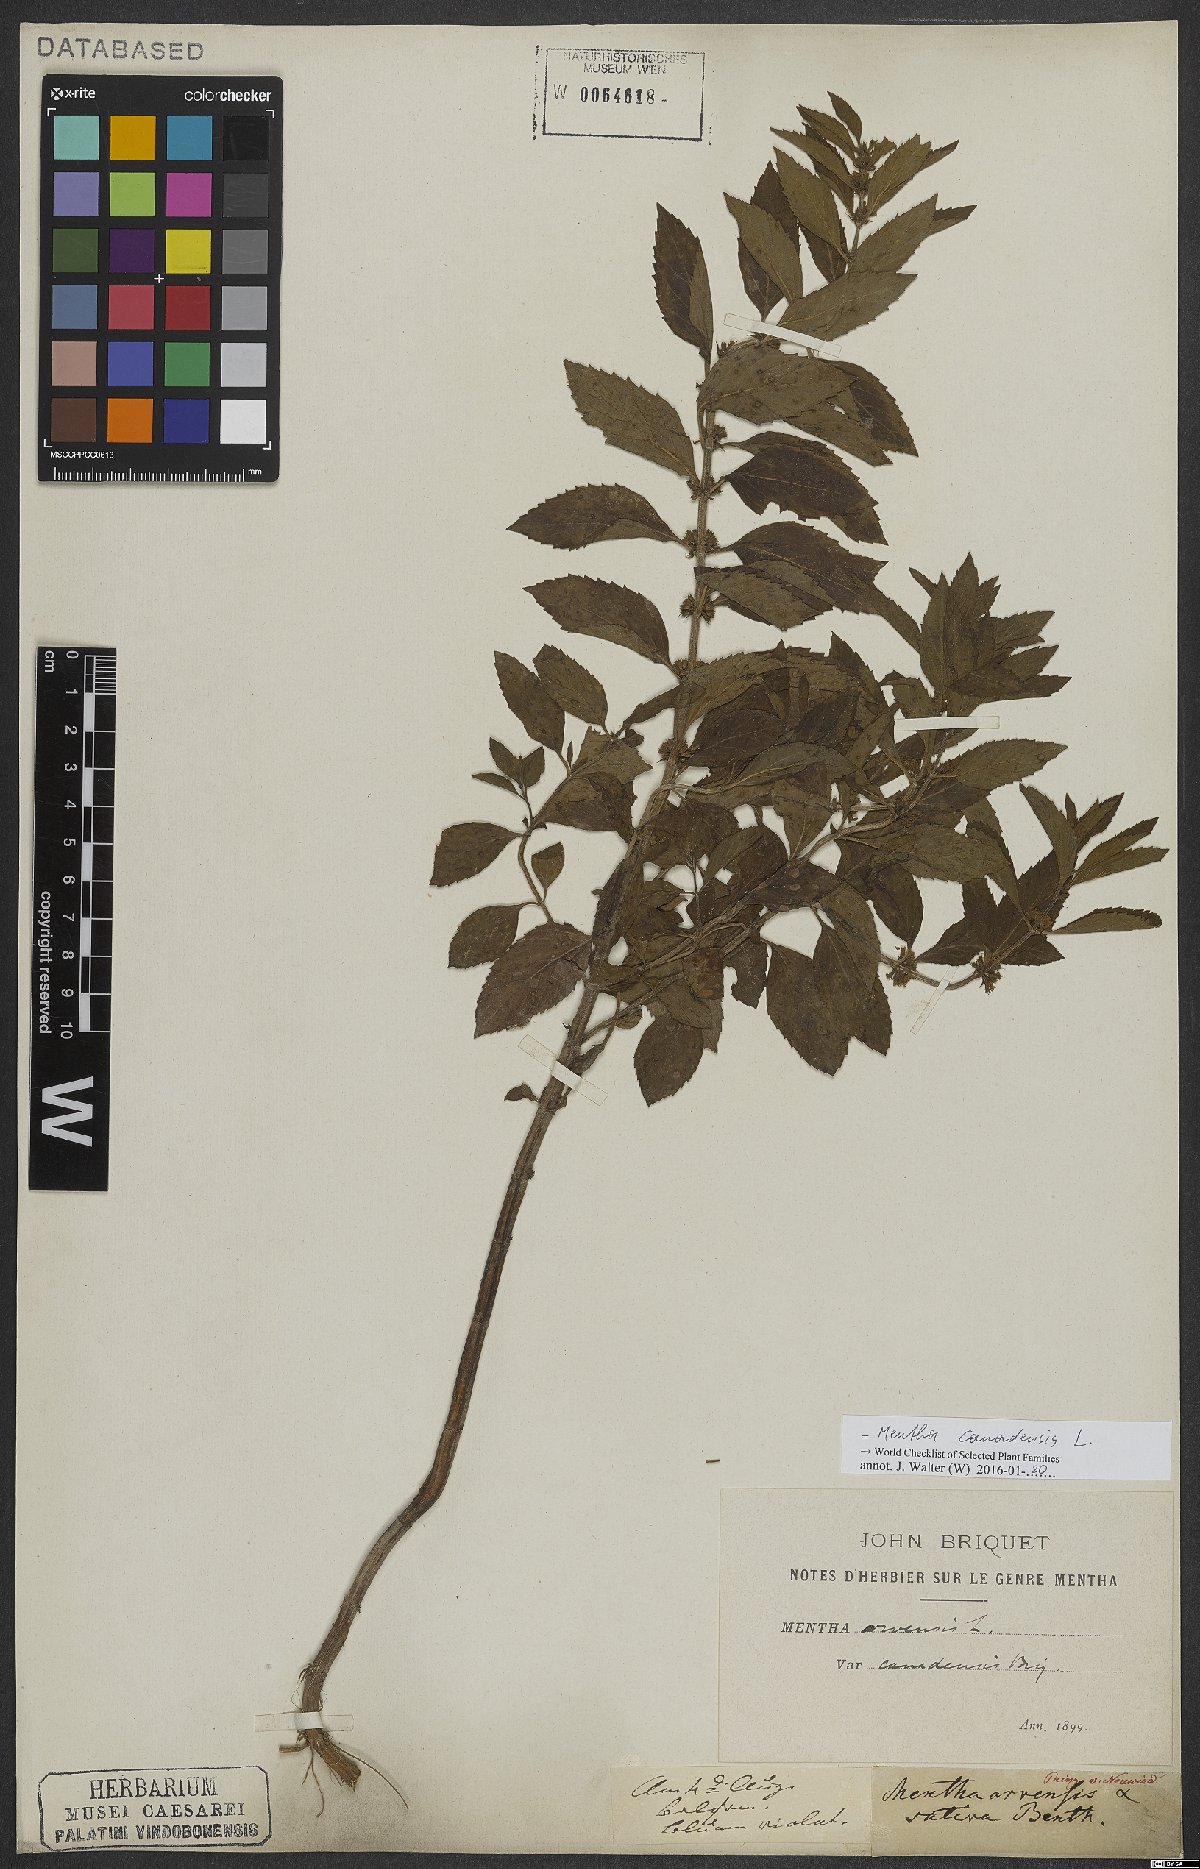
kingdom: Plantae
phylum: Tracheophyta
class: Magnoliopsida
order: Lamiales
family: Lamiaceae
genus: Mentha
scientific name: Mentha canadensis
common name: American corn mint
